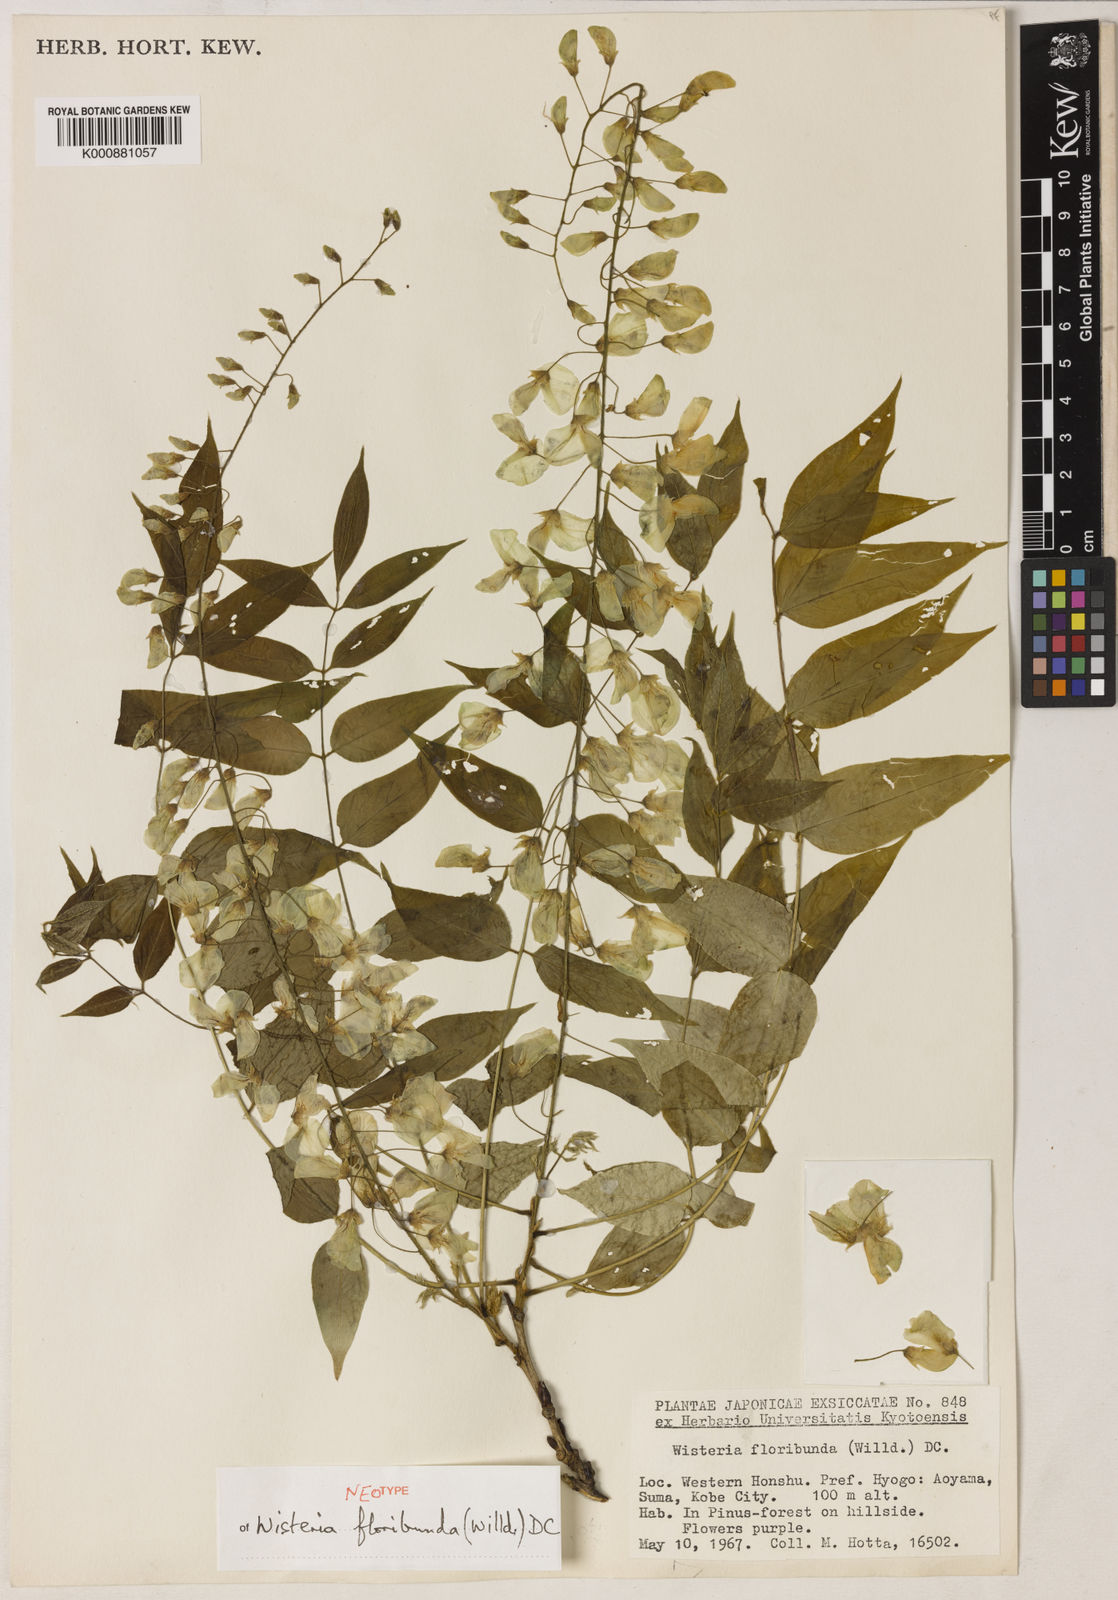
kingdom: Plantae
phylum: Tracheophyta
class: Magnoliopsida
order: Fabales
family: Fabaceae
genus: Wisteria
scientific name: Wisteria floribunda
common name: Japanese wisteria
